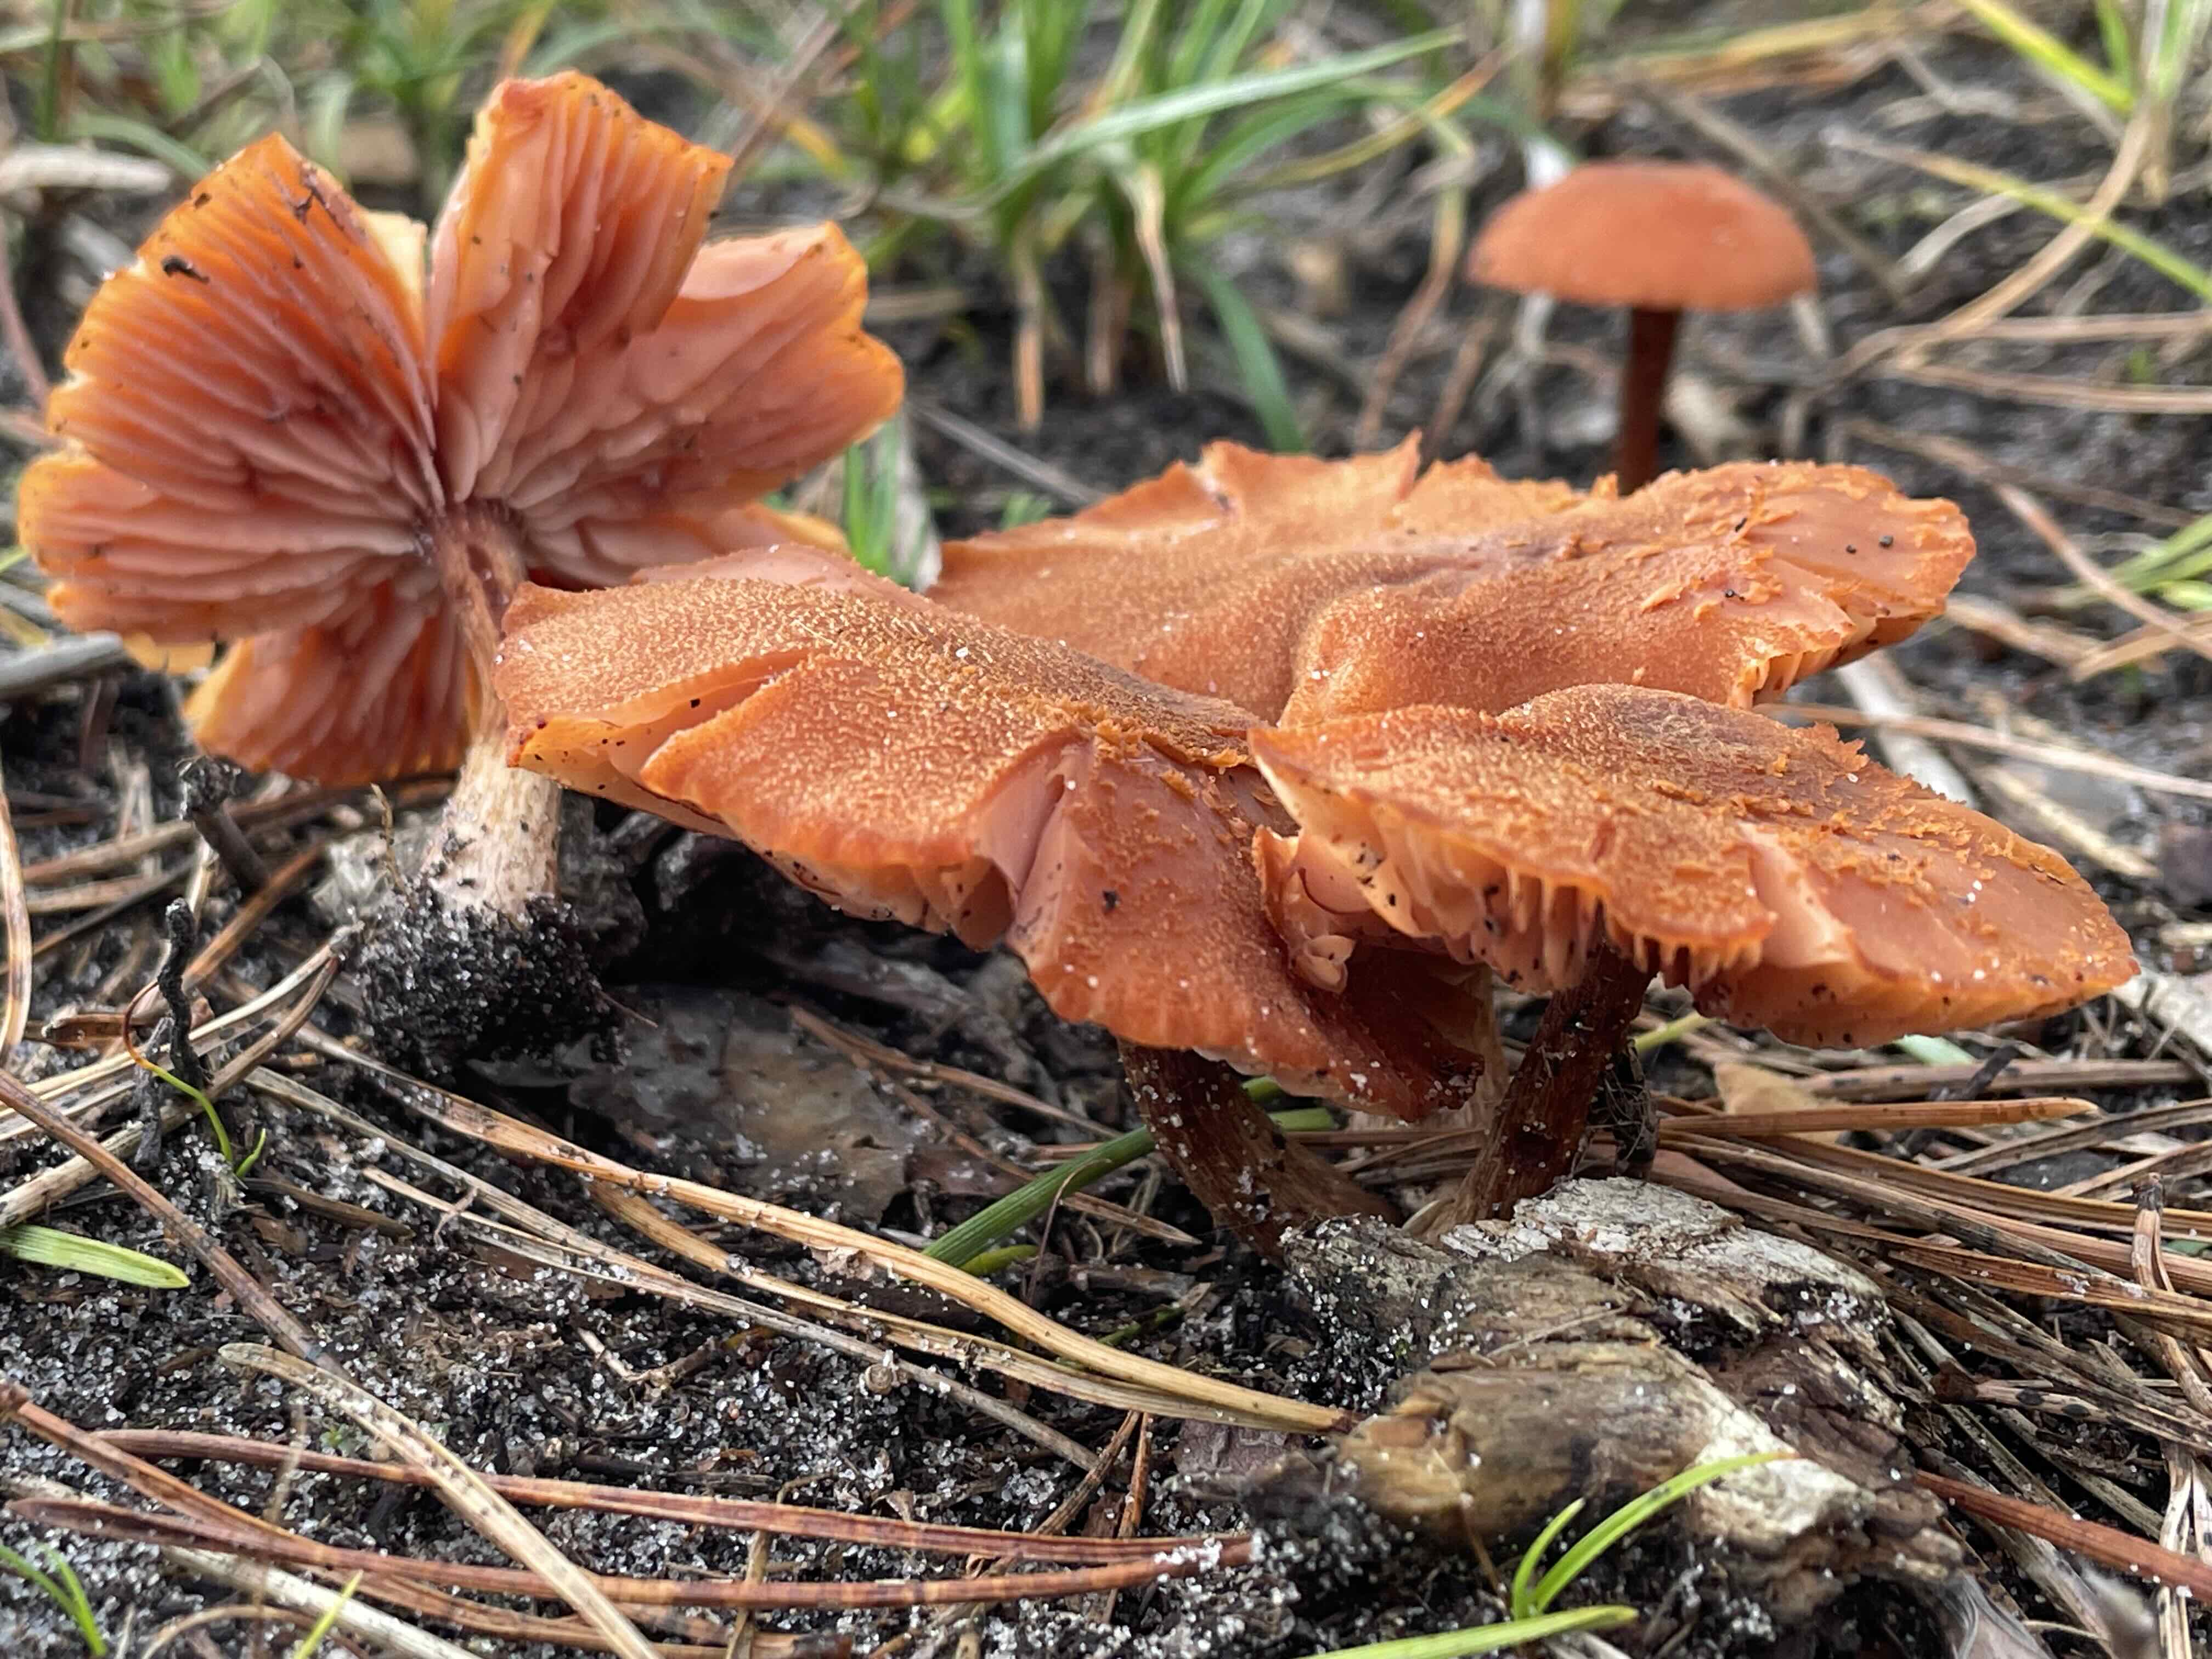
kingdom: Fungi
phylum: Basidiomycota
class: Agaricomycetes
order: Agaricales
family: Hydnangiaceae
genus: Laccaria
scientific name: Laccaria proxima
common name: stor ametysthat
